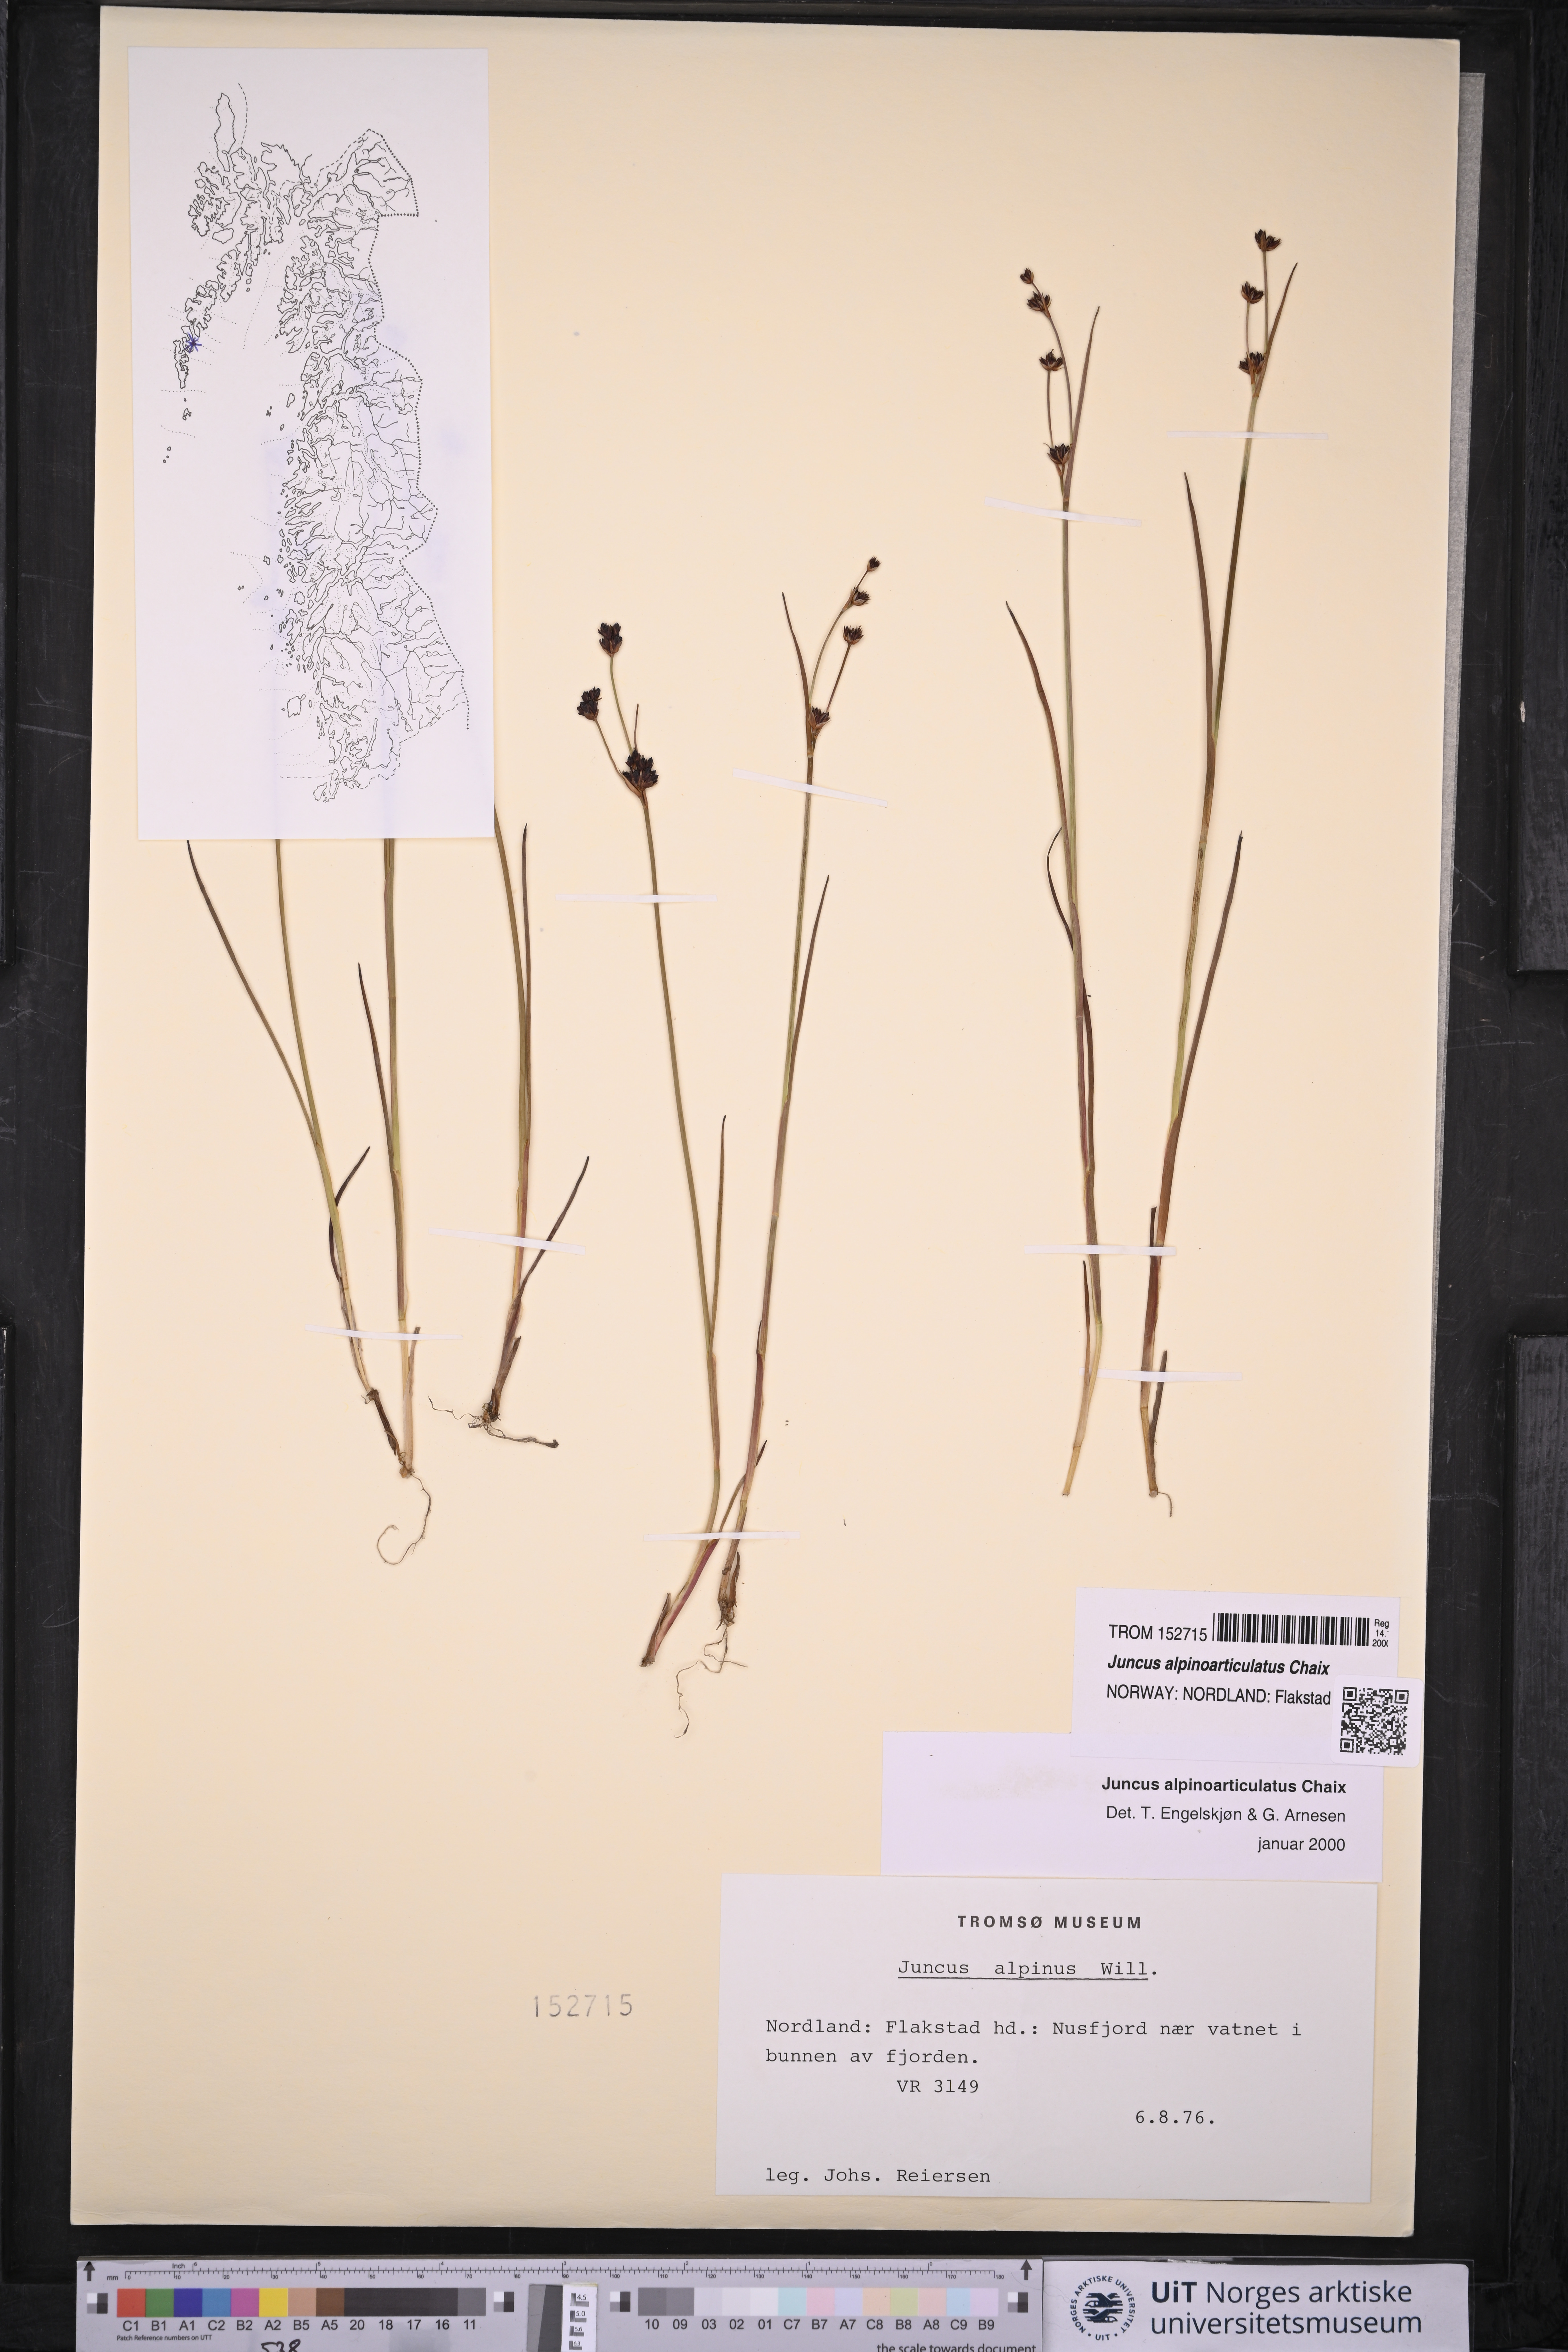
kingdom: Plantae
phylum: Tracheophyta
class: Liliopsida
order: Poales
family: Juncaceae
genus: Juncus
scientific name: Juncus alpinoarticulatus
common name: Alpine rush
